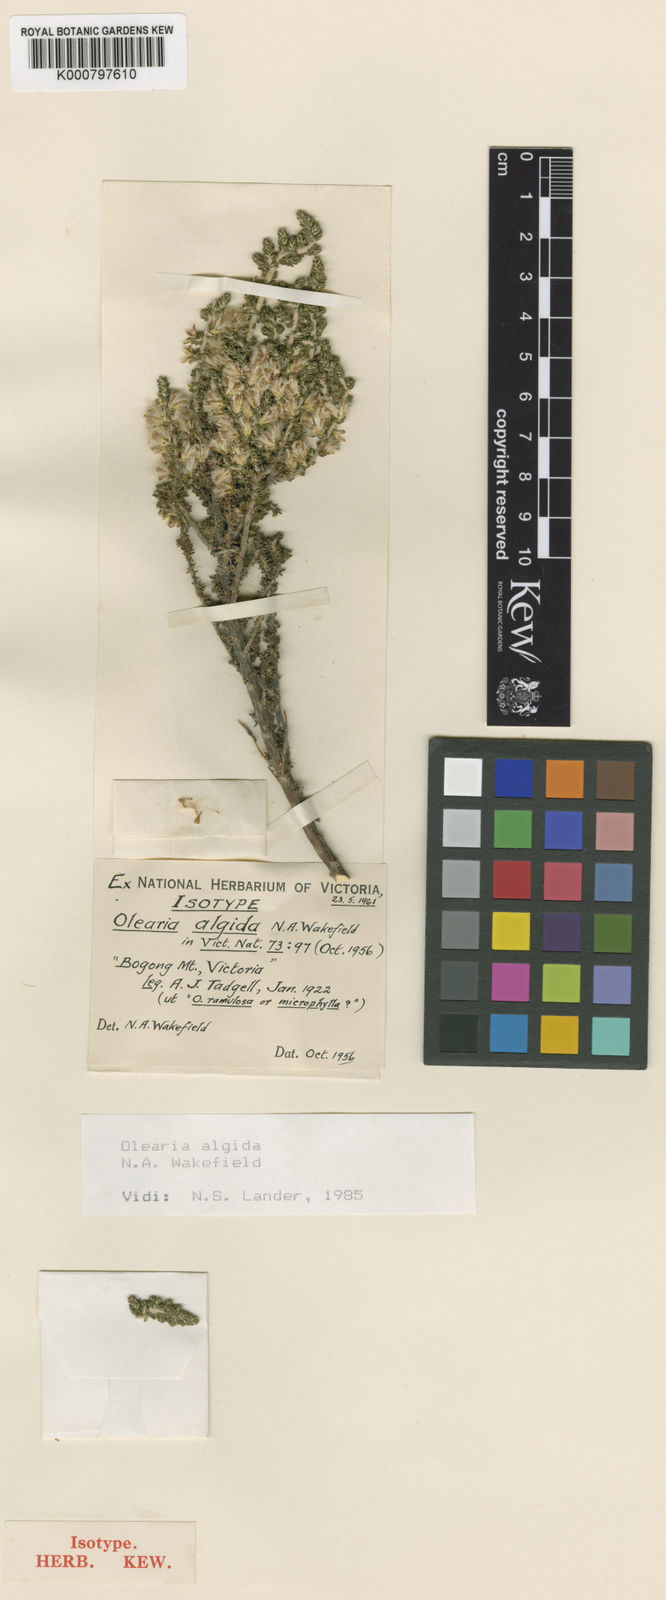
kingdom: Plantae
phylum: Tracheophyta
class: Magnoliopsida
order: Asterales
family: Asteraceae
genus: Olearia
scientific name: Olearia algida
